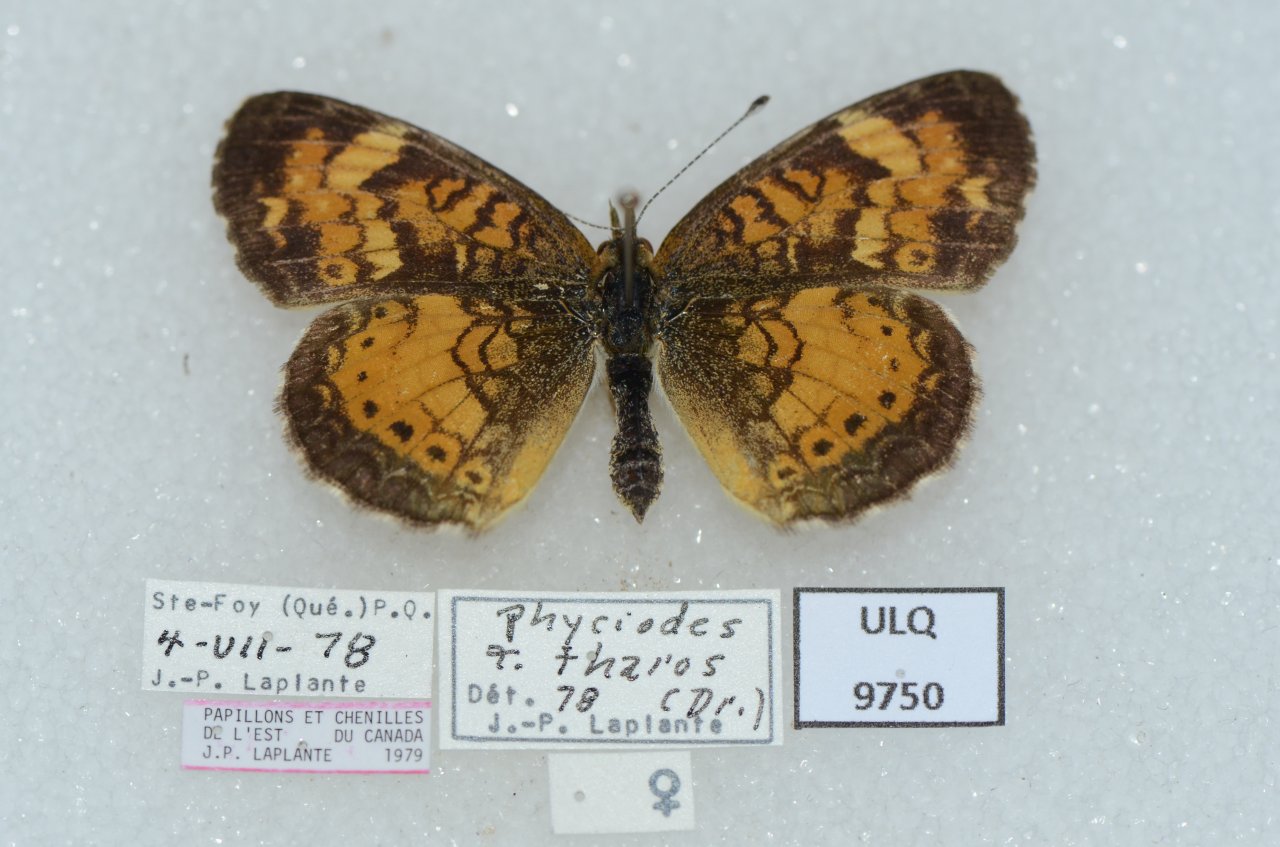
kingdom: Animalia
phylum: Arthropoda
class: Insecta
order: Lepidoptera
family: Nymphalidae
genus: Phyciodes
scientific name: Phyciodes tharos
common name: Northern Crescent
